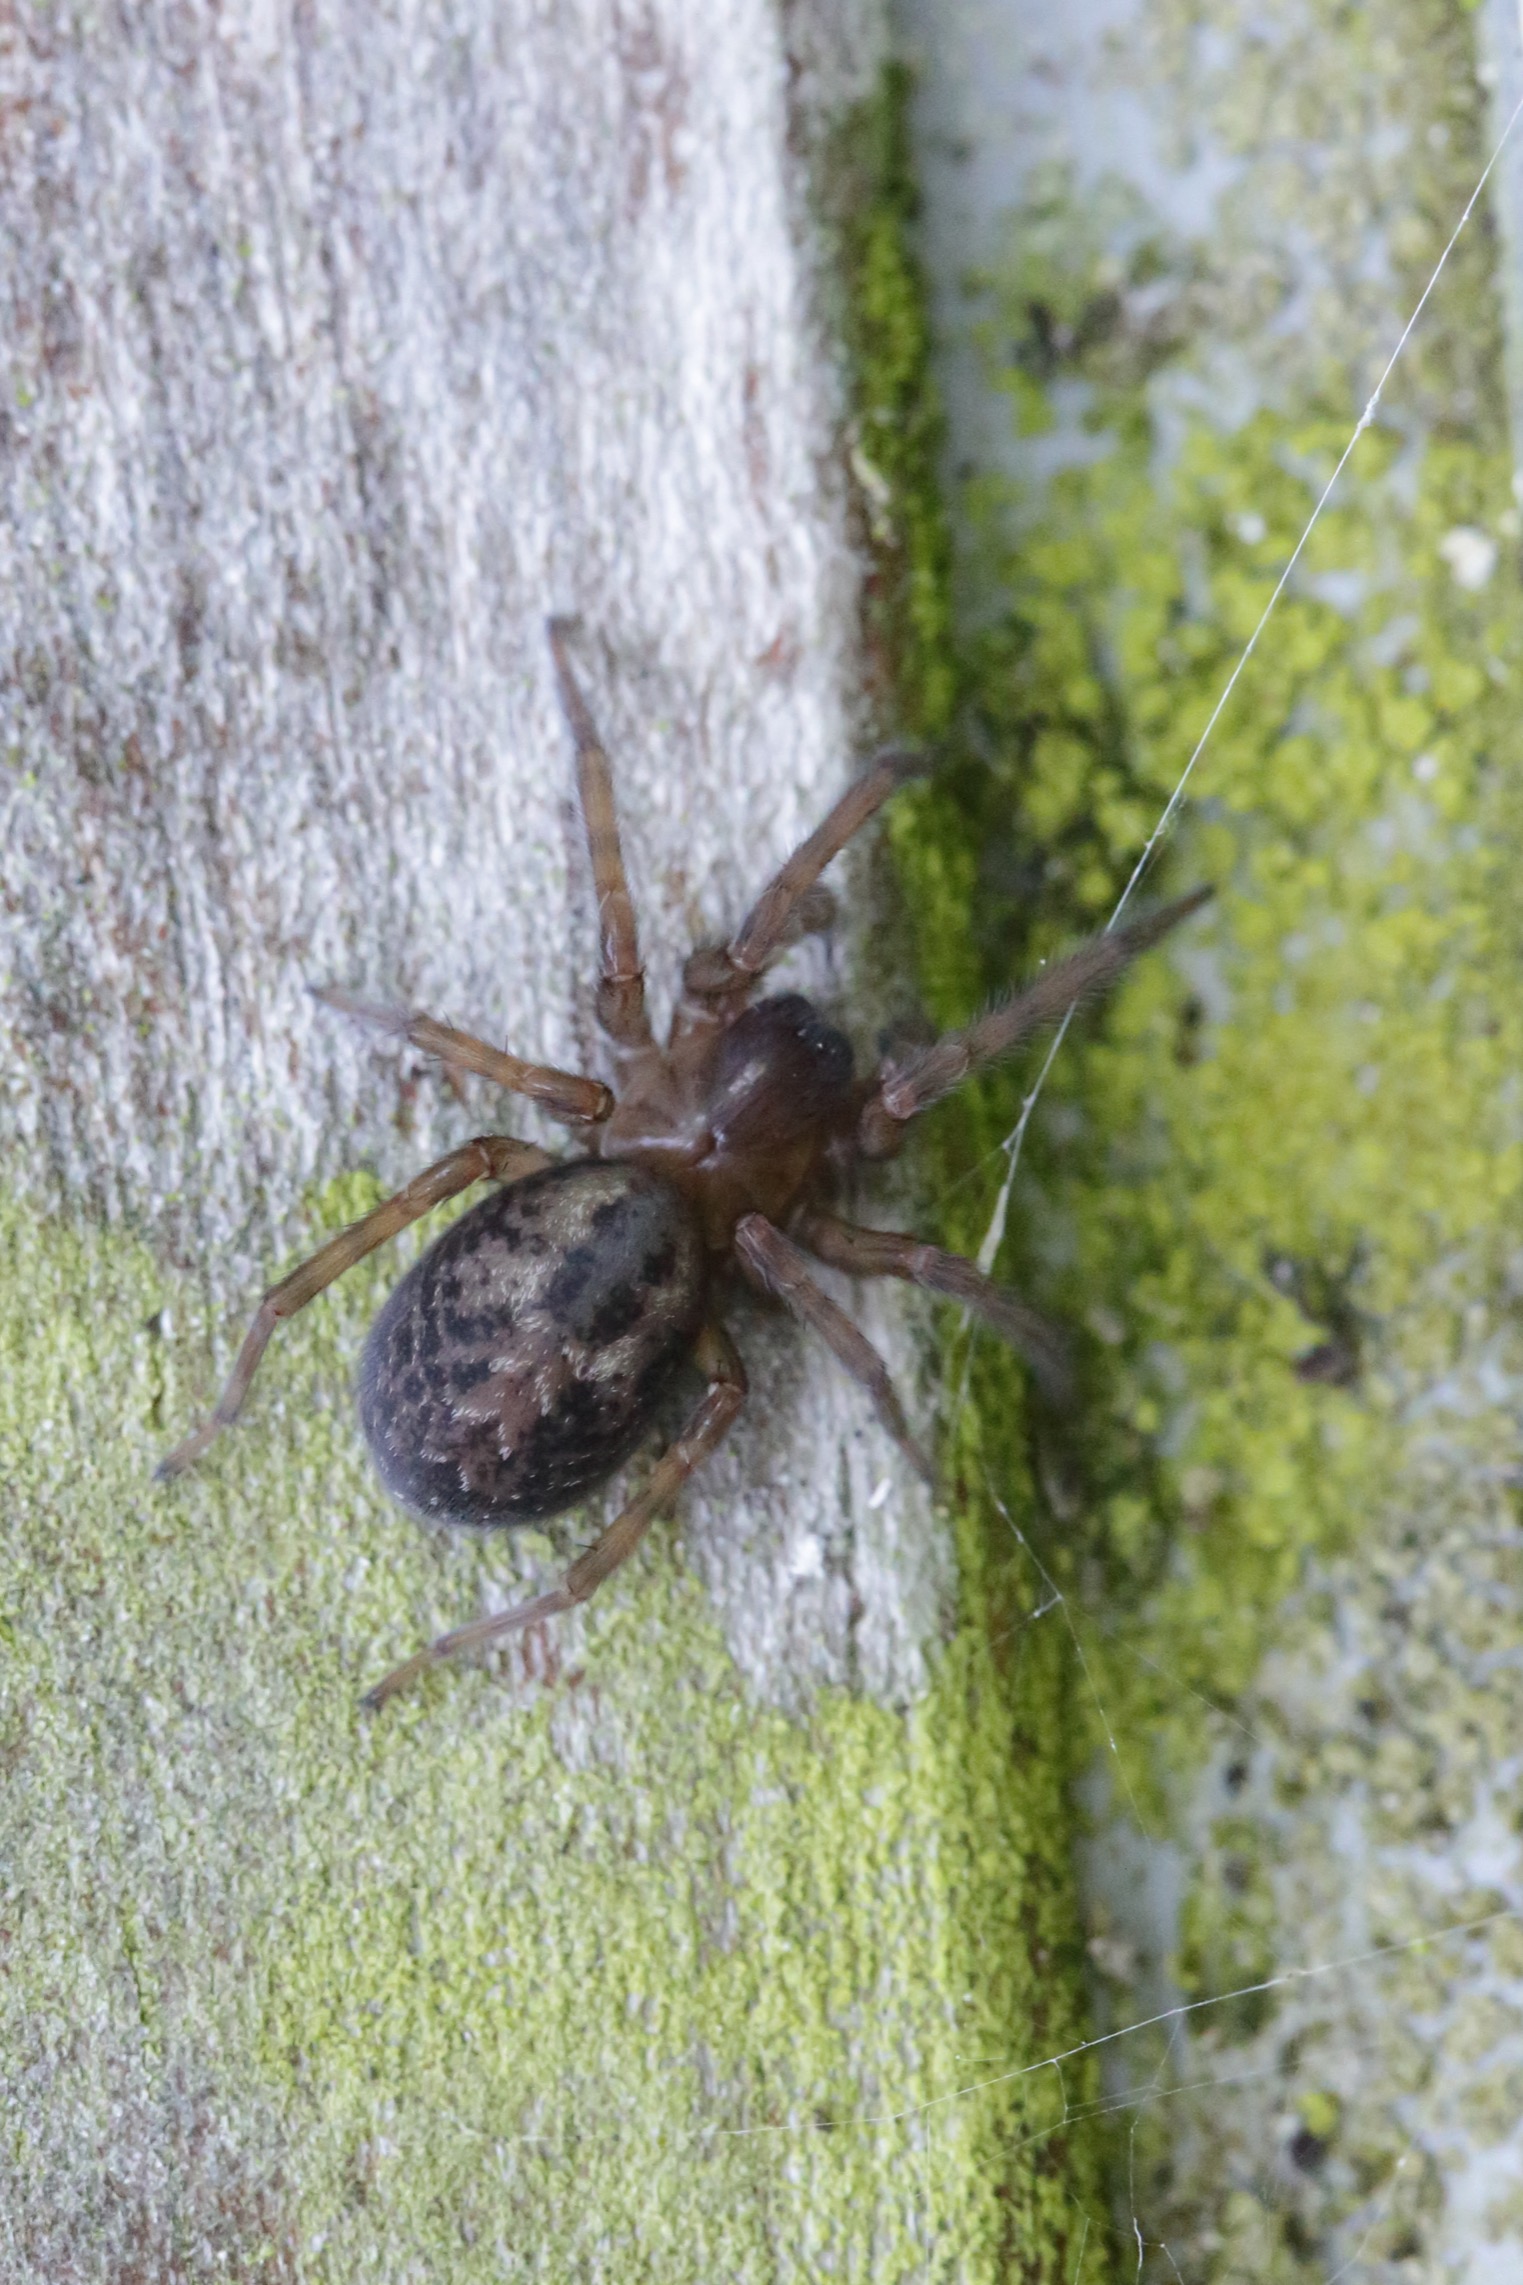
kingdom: Animalia
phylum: Arthropoda
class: Arachnida
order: Araneae
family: Amaurobiidae
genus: Amaurobius
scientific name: Amaurobius similis
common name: Huskartespinder
